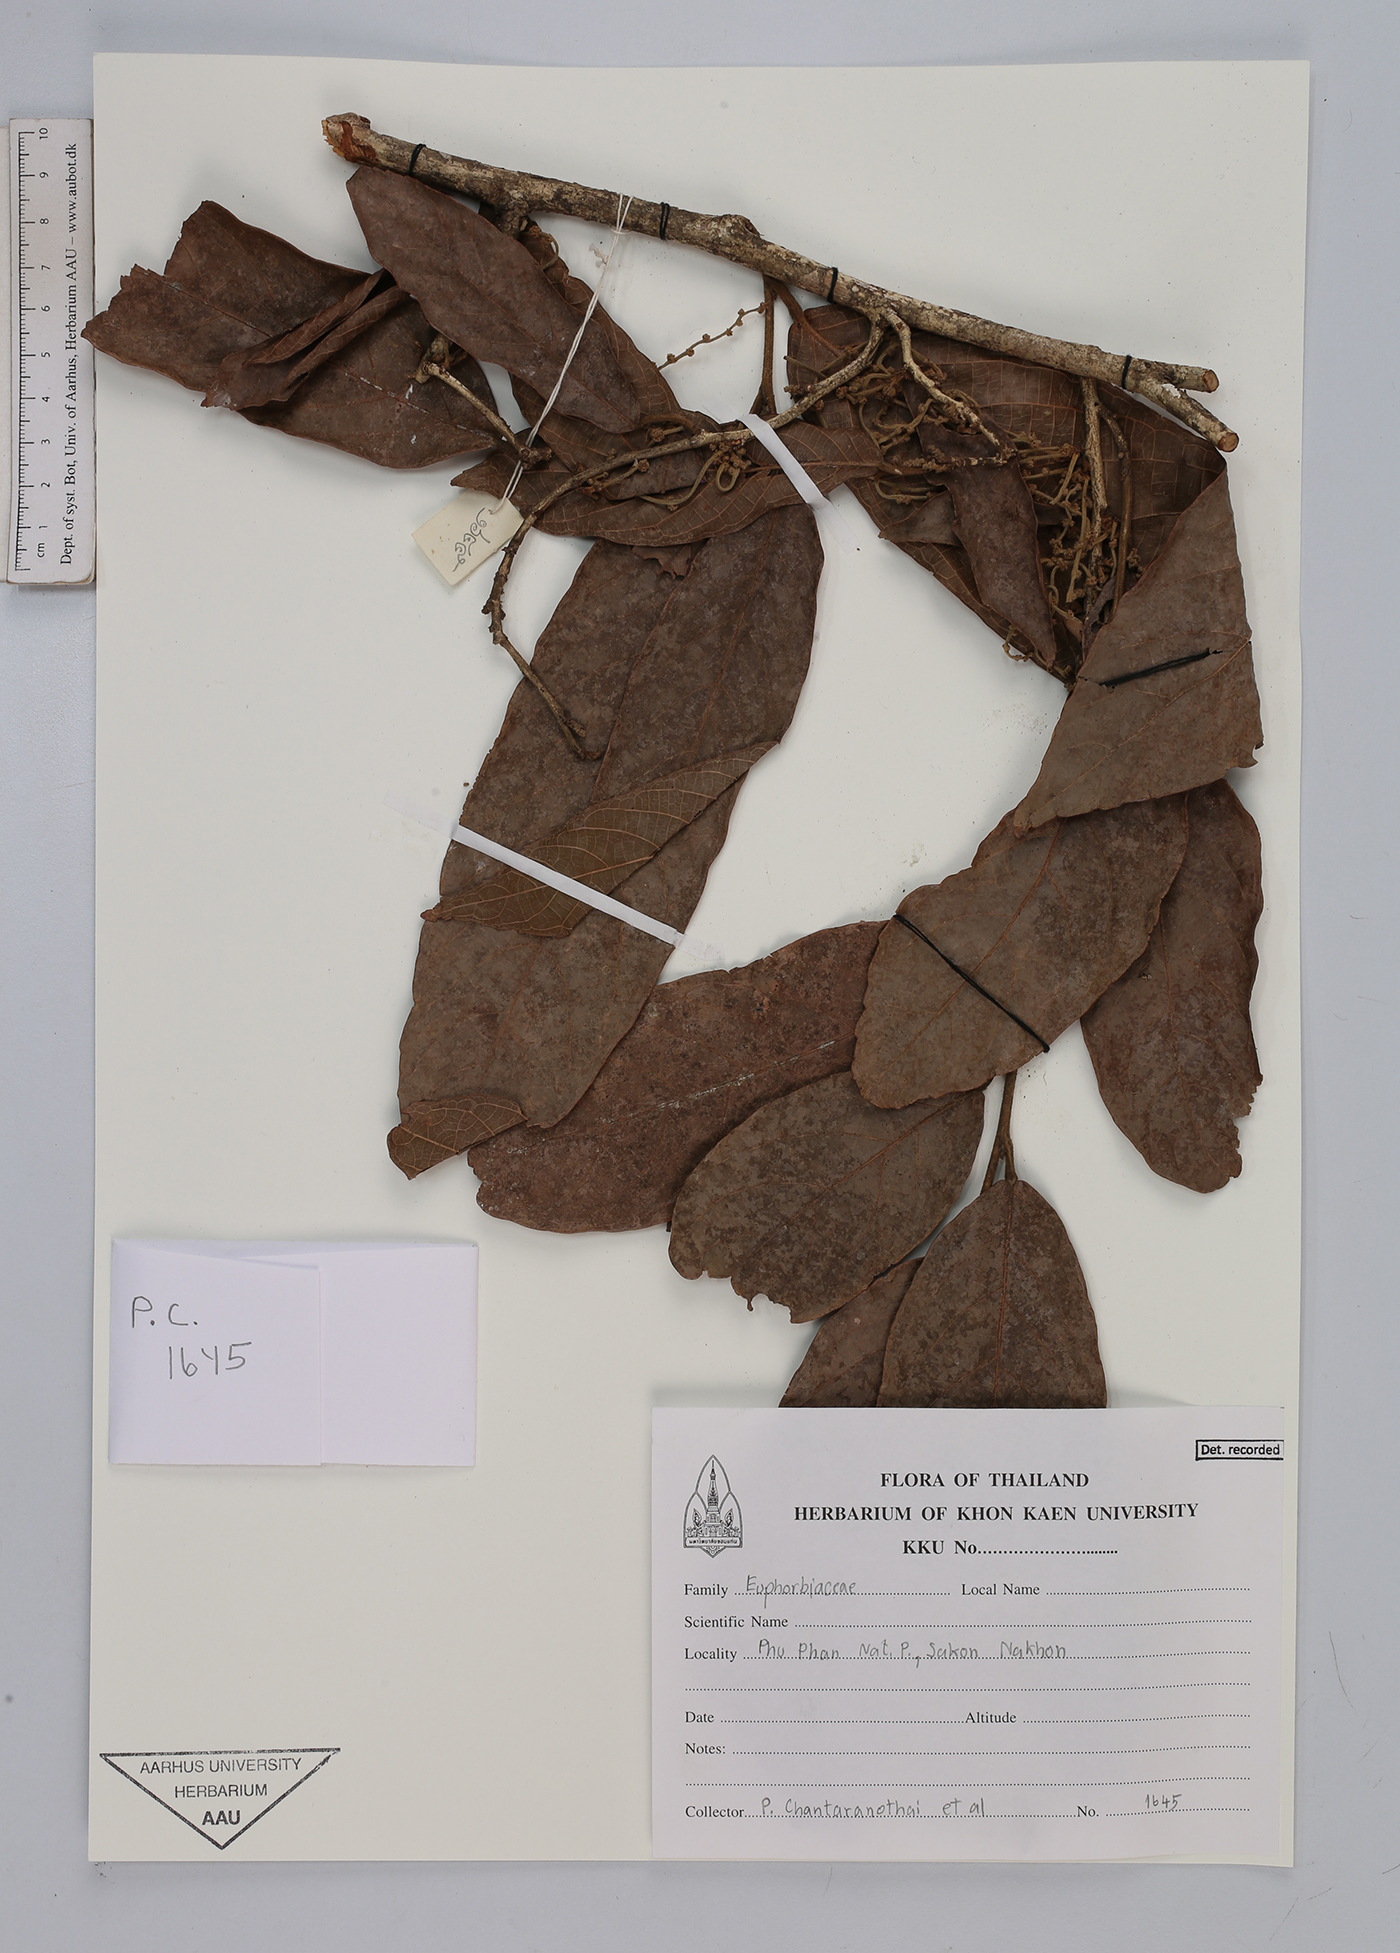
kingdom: Plantae
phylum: Tracheophyta
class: Magnoliopsida
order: Malpighiales
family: Euphorbiaceae
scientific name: Euphorbiaceae
